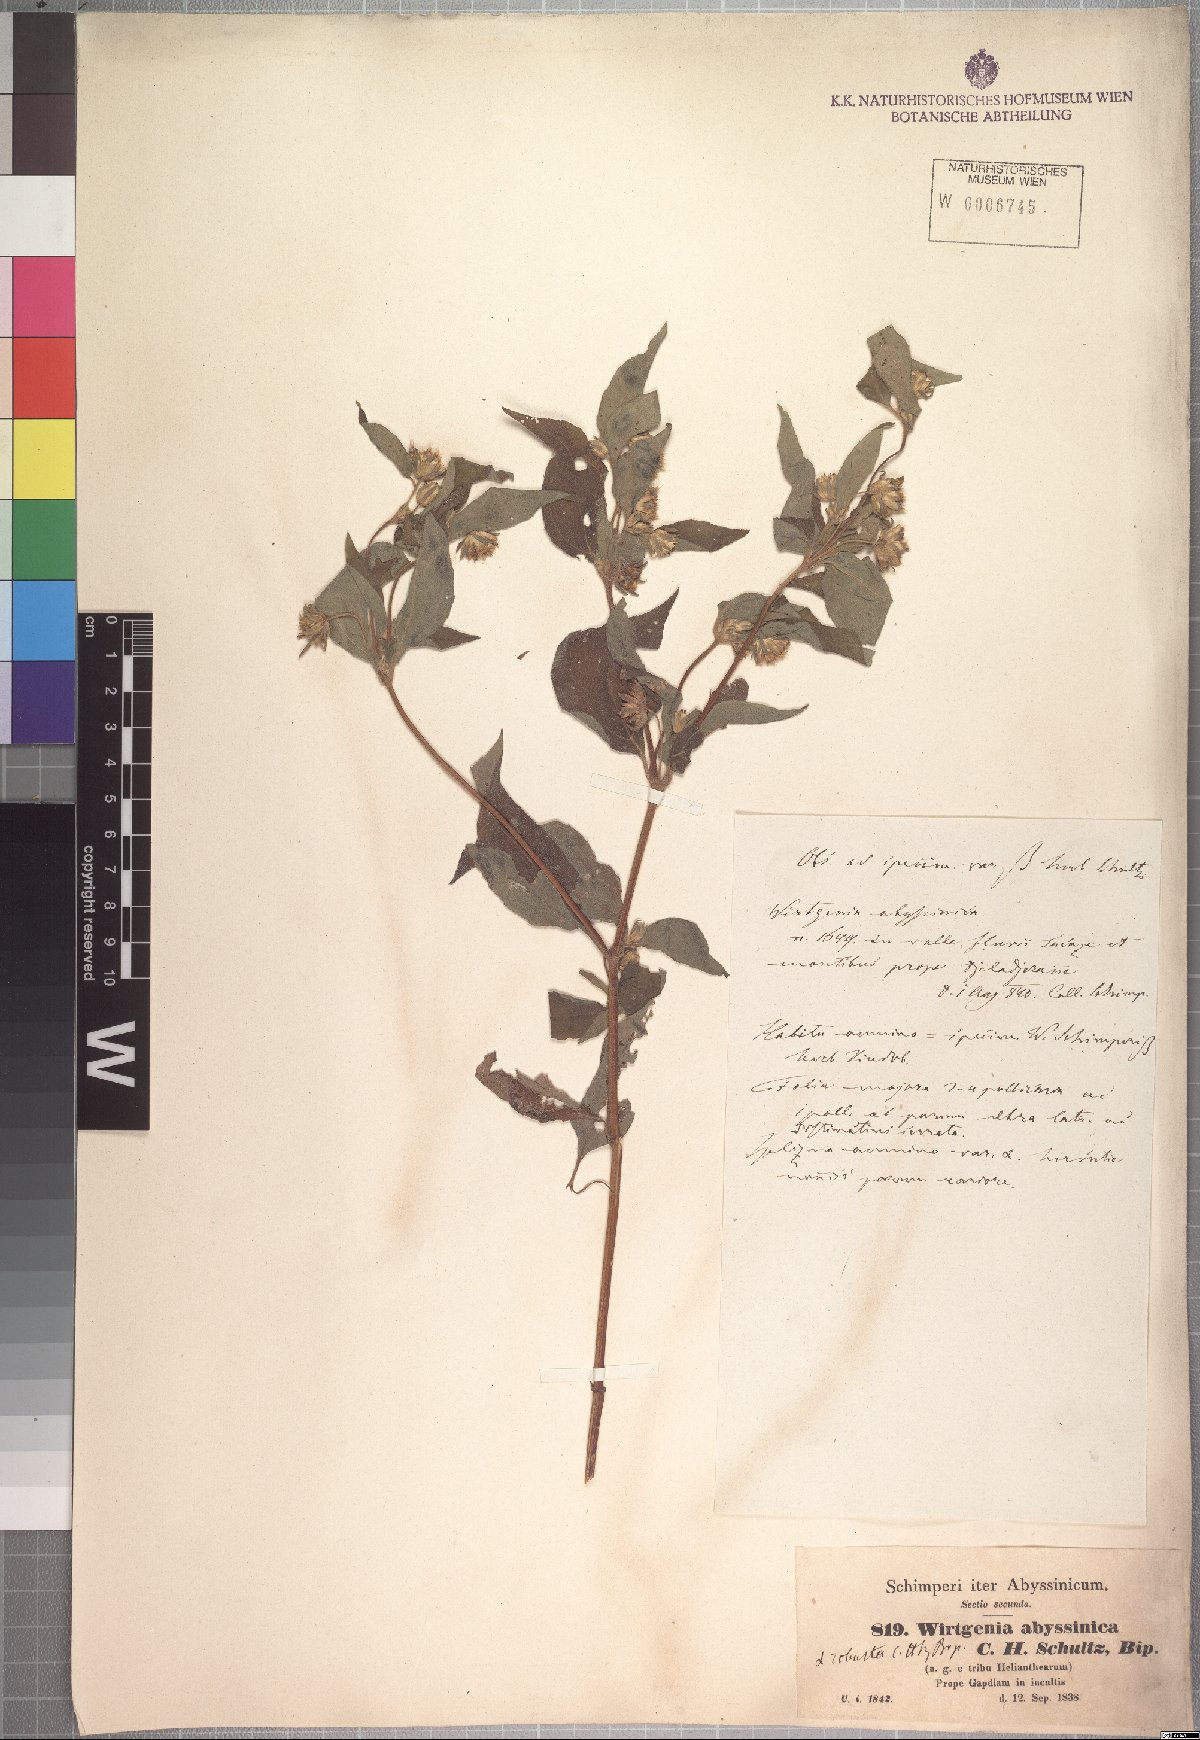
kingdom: Plantae
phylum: Tracheophyta
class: Magnoliopsida
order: Asterales
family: Asteraceae
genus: Aspilia
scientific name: Aspilia ciliata
